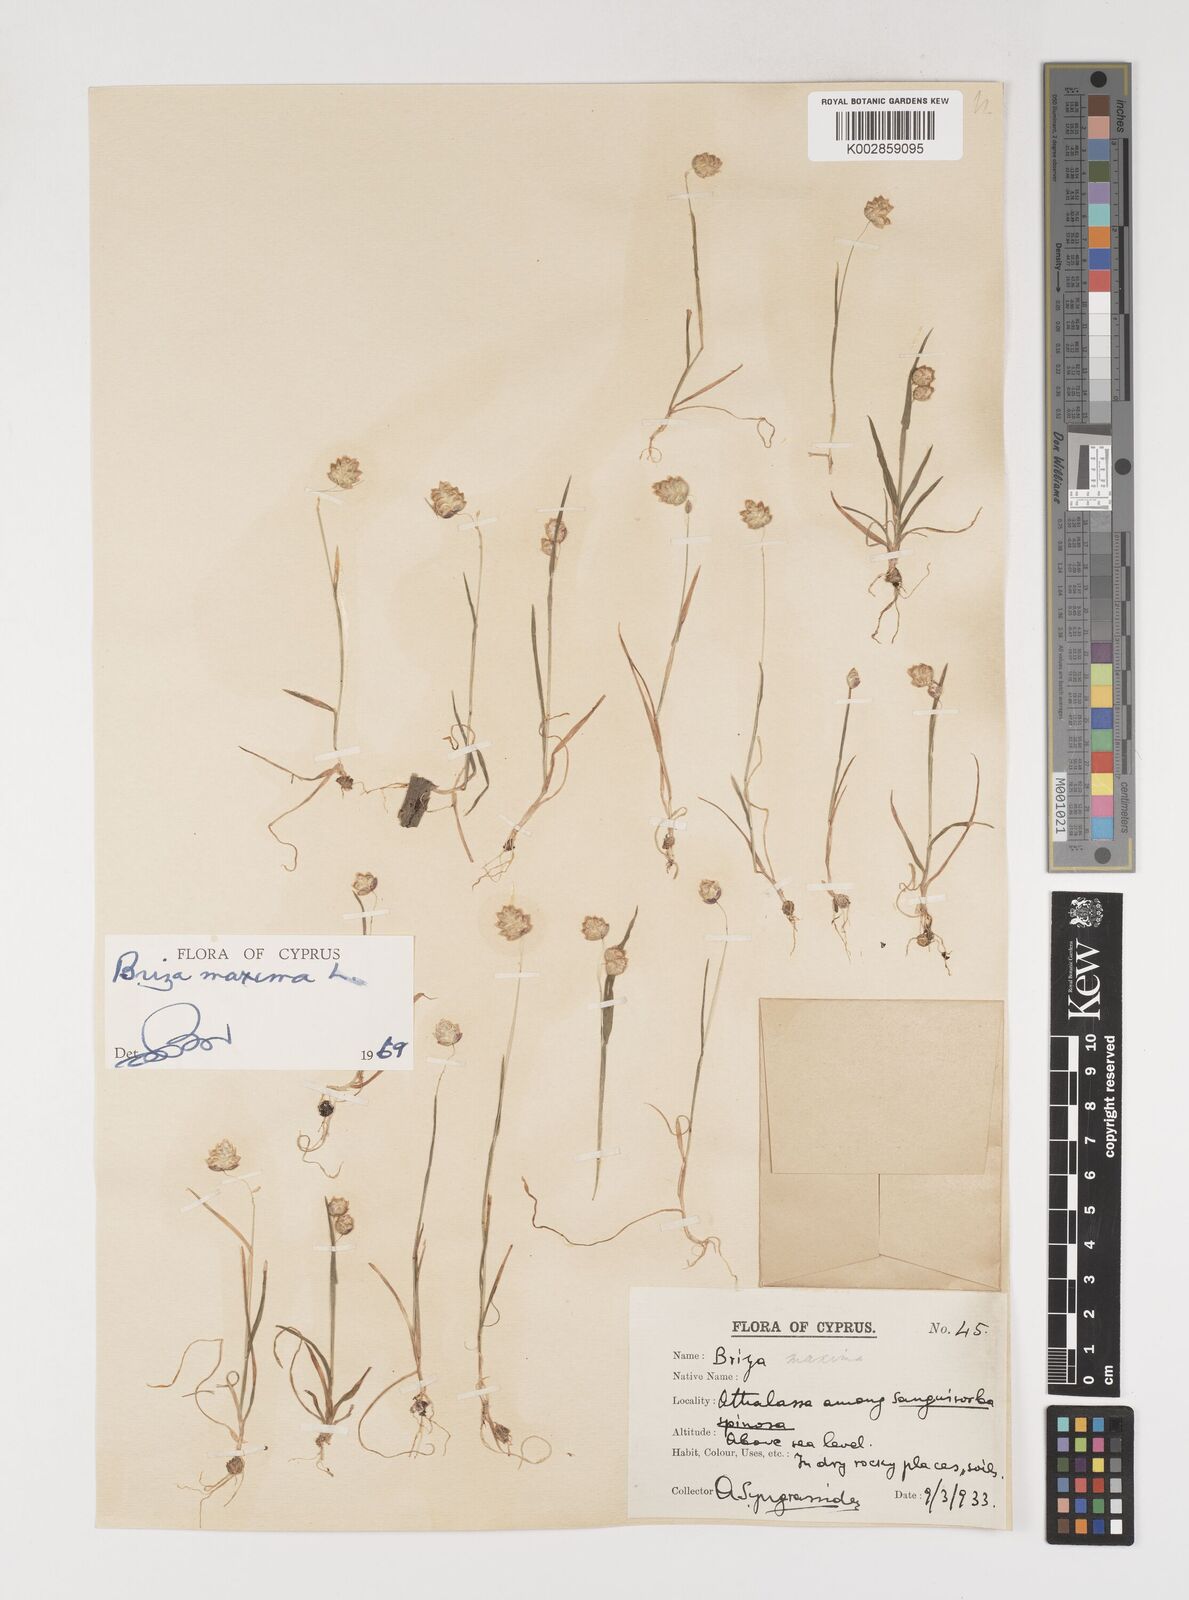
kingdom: Plantae
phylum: Tracheophyta
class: Liliopsida
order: Poales
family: Poaceae
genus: Briza
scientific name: Briza maxima
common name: Big quakinggrass
